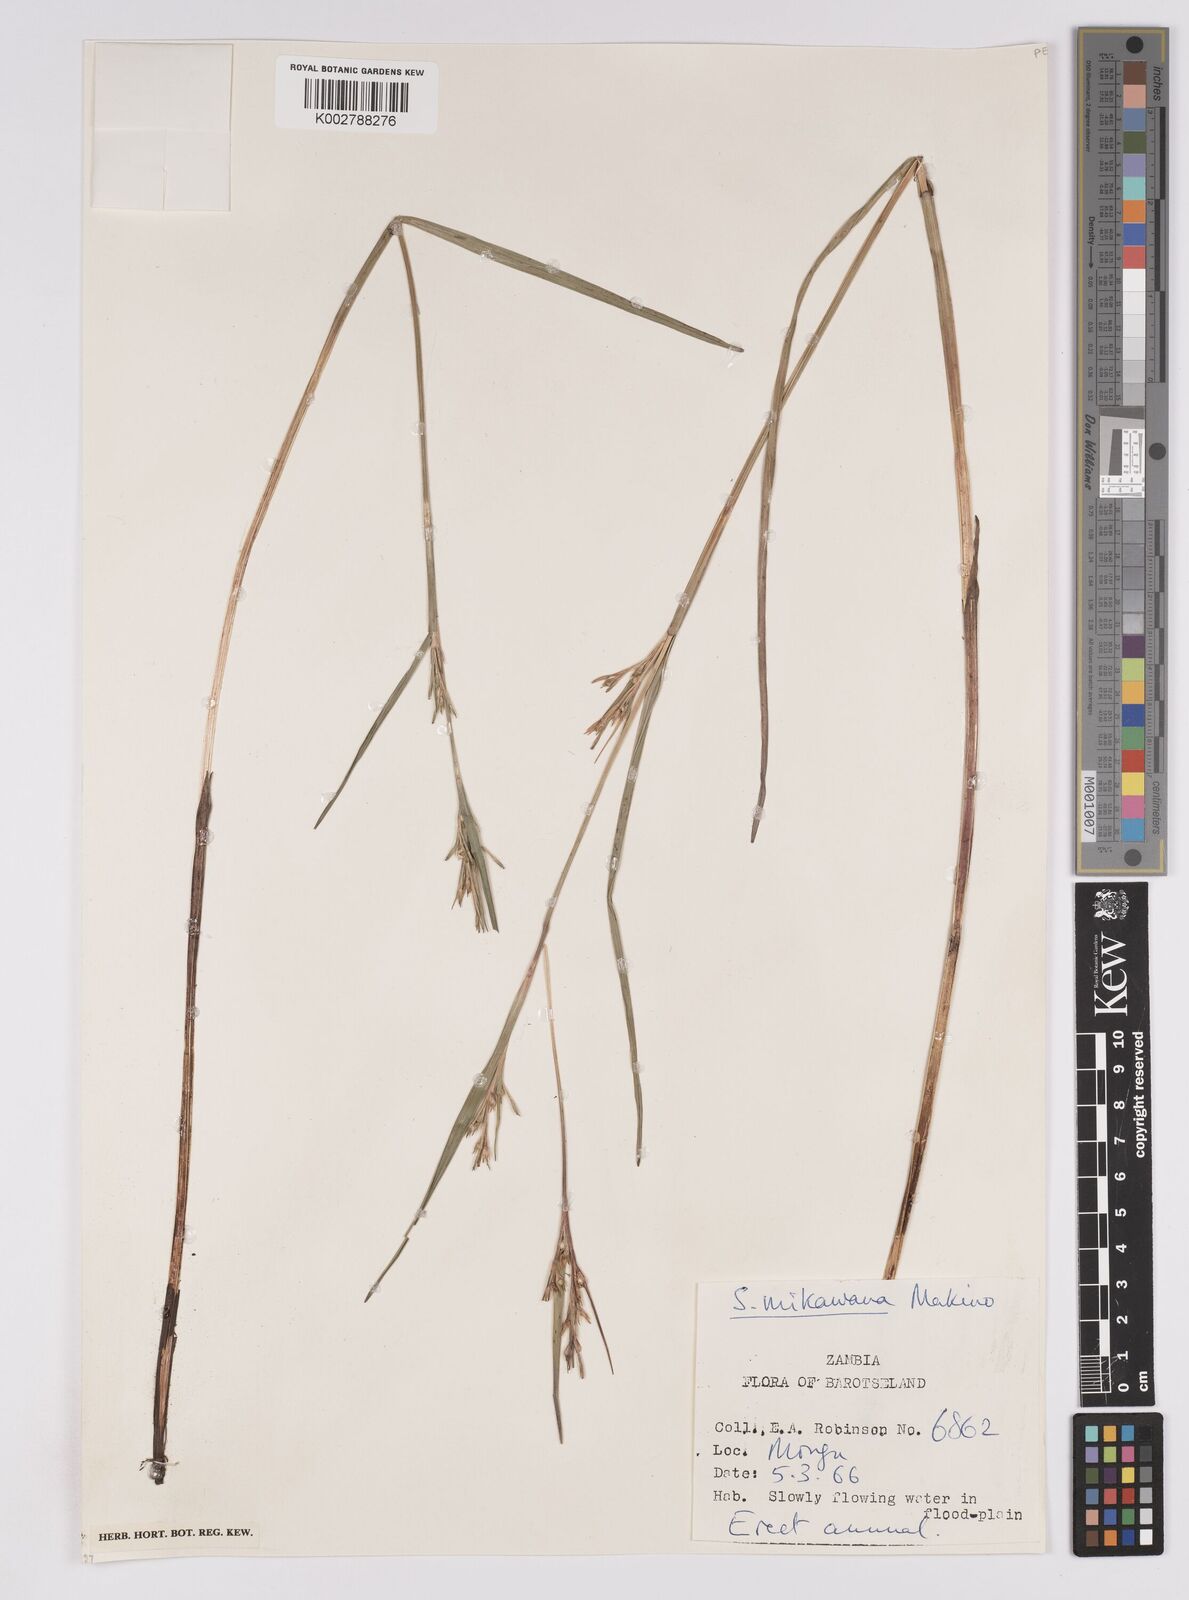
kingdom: Plantae
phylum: Tracheophyta
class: Liliopsida
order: Poales
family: Cyperaceae
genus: Scleria
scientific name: Scleria mikawana
